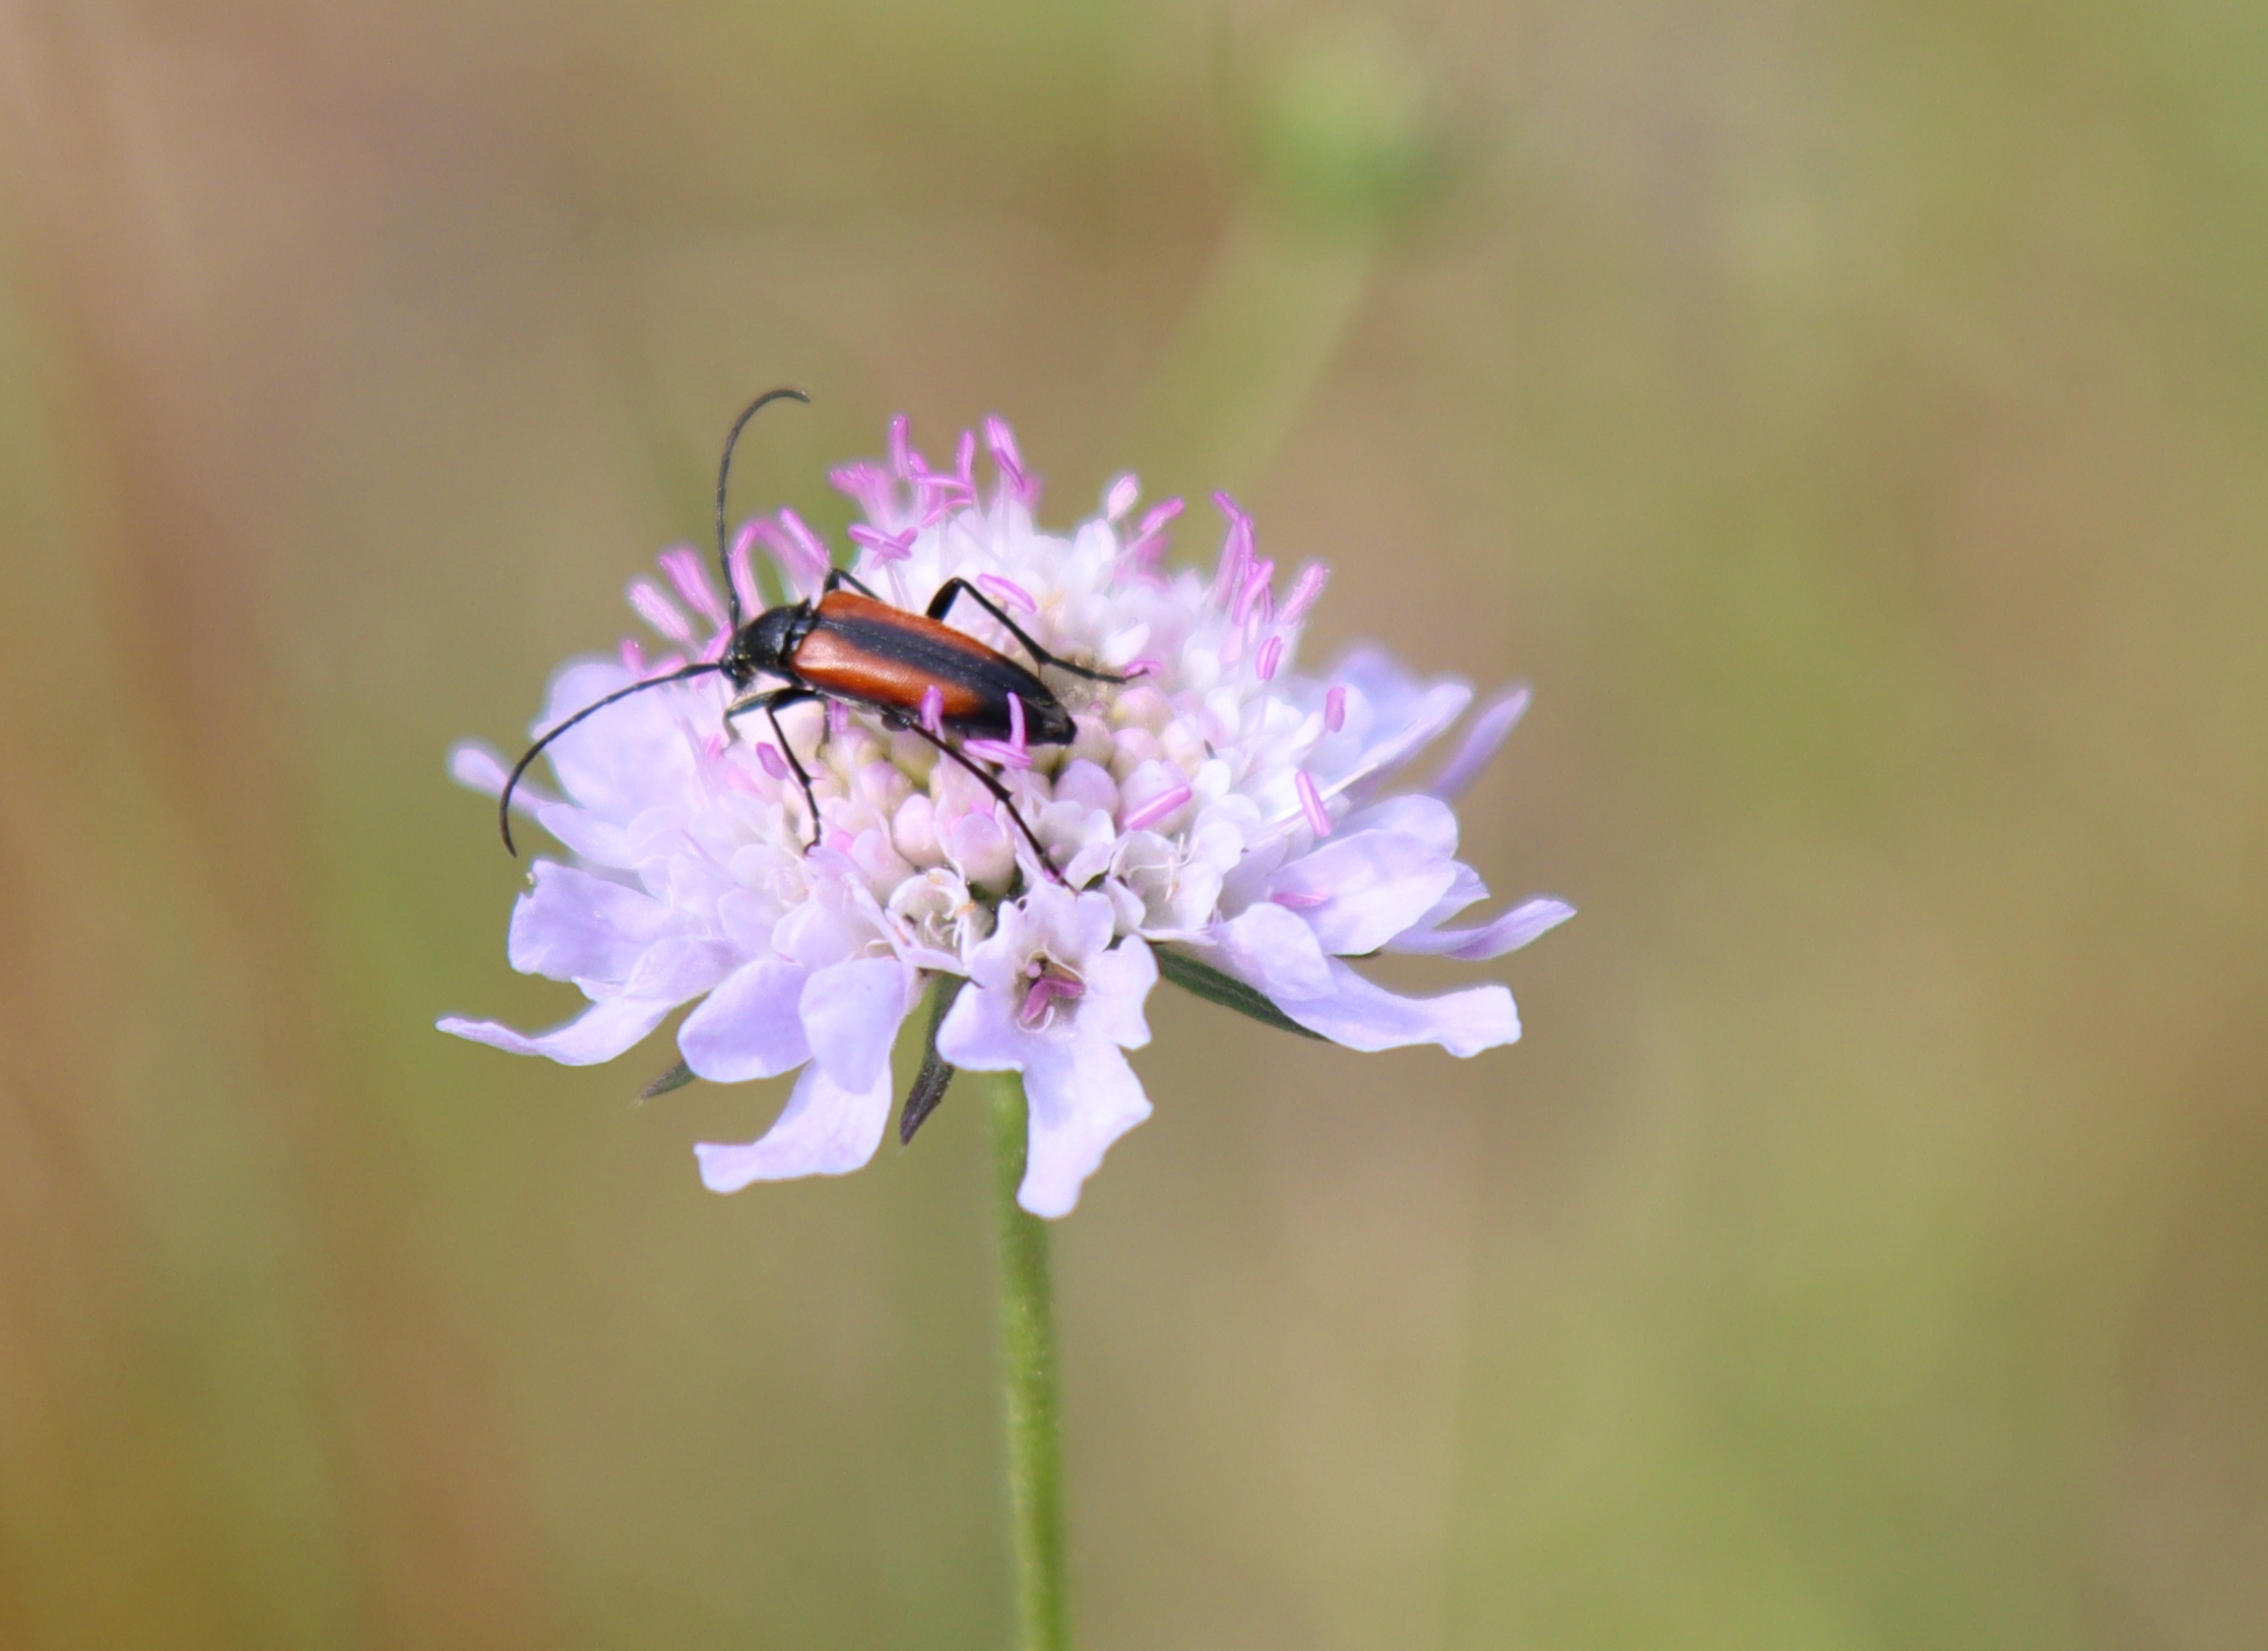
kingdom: Animalia
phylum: Arthropoda
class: Insecta
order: Coleoptera
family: Cerambycidae
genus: Stenurella
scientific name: Stenurella melanura
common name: Sortsømmet blomsterbuk
